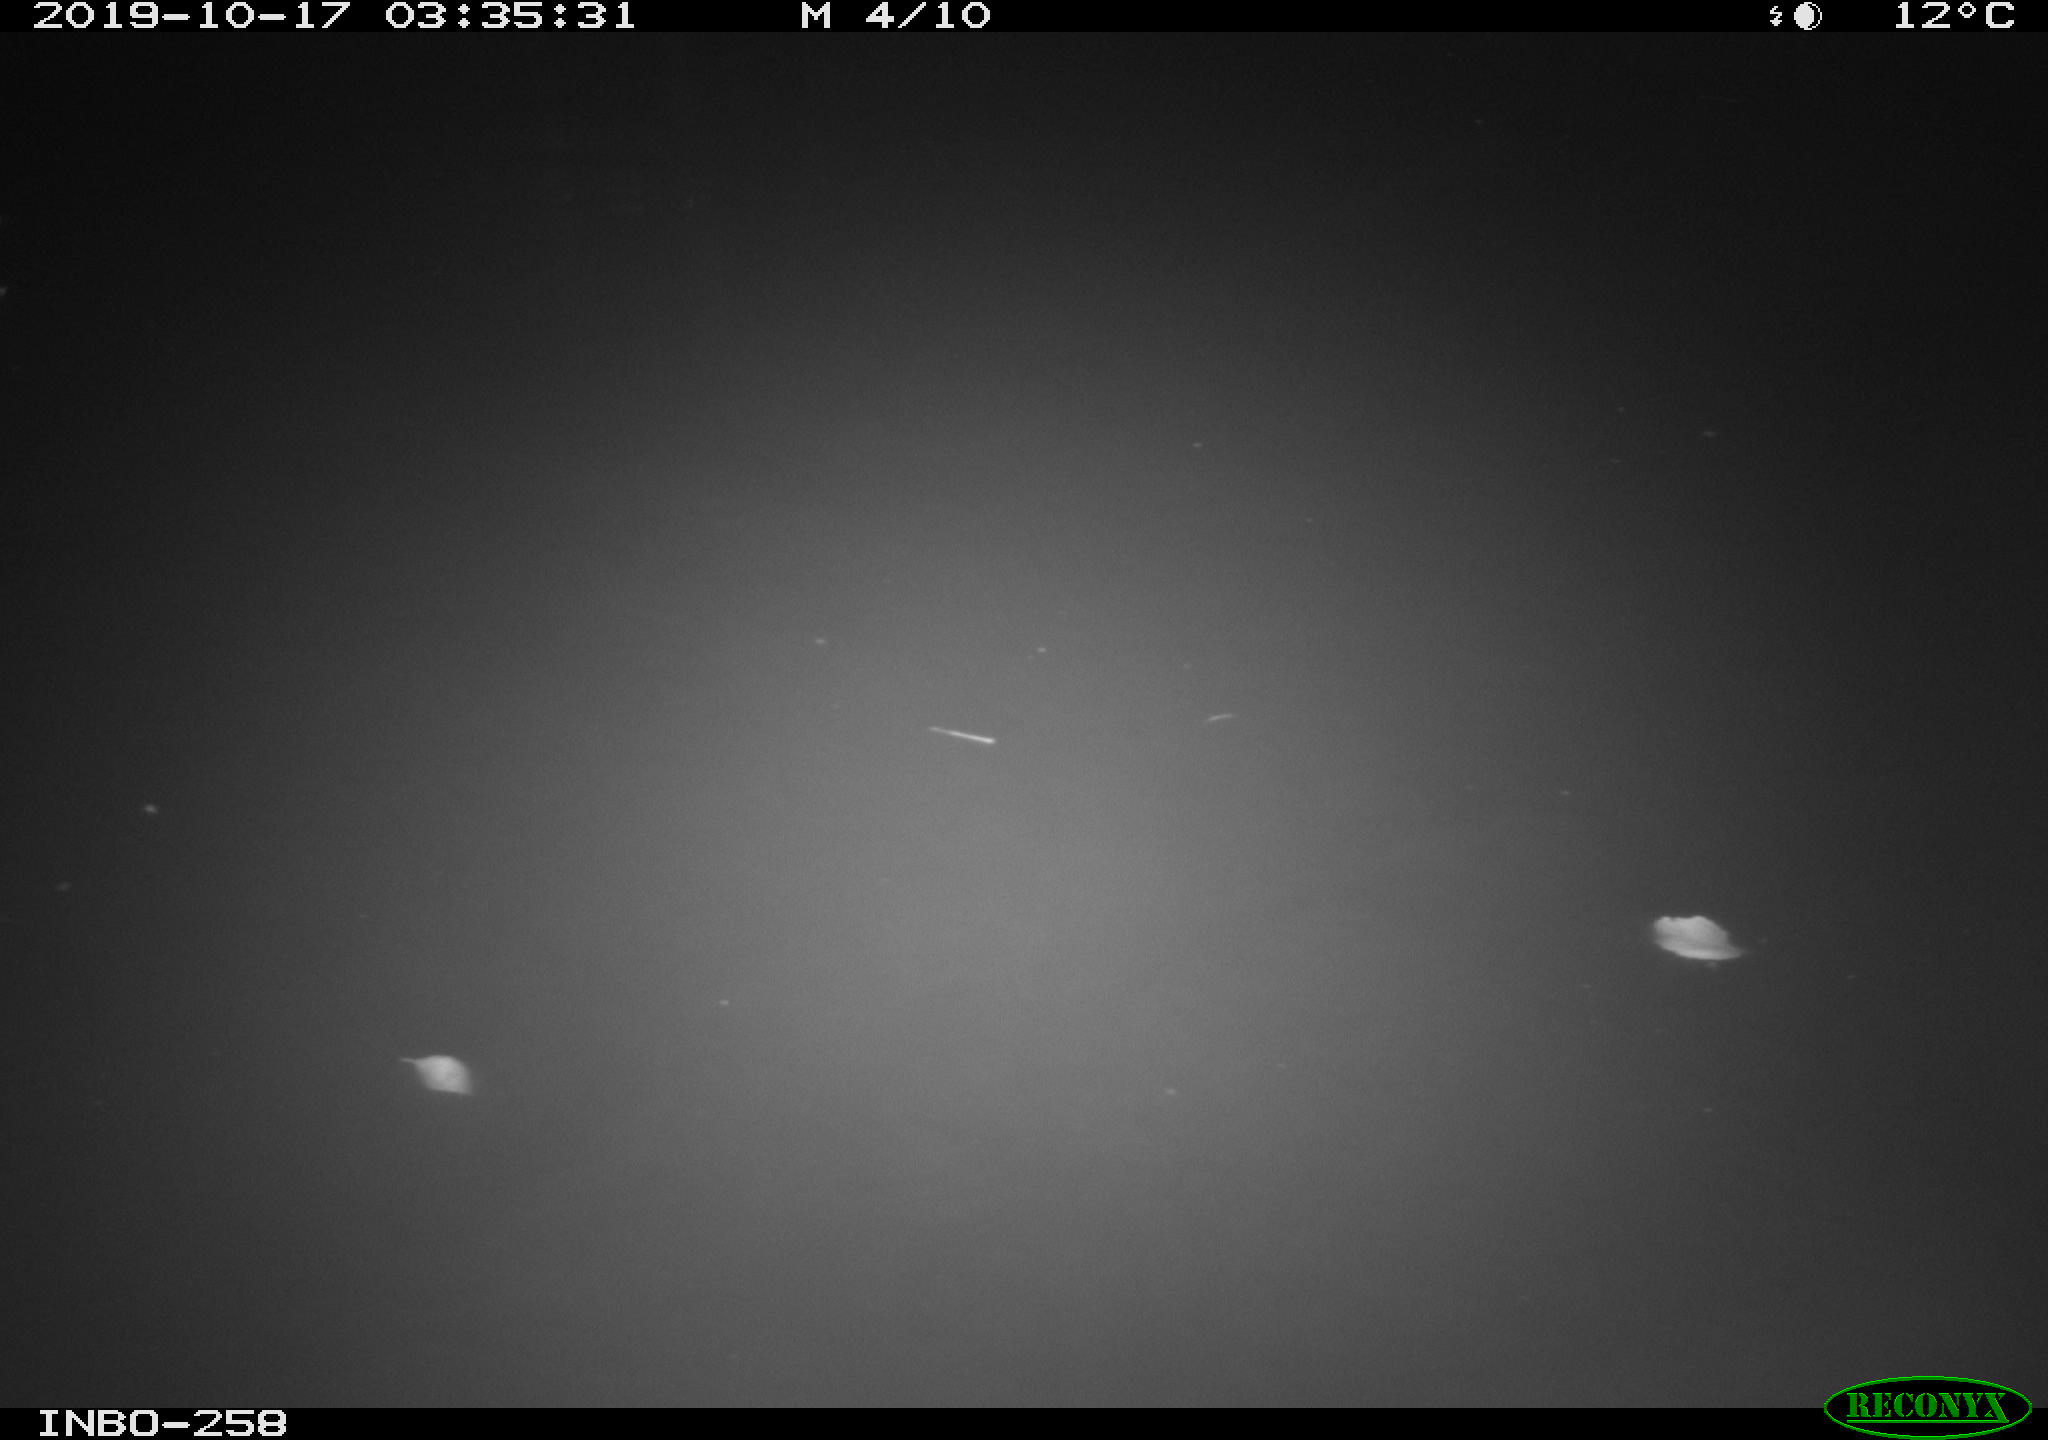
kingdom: Animalia
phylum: Chordata
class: Aves
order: Anseriformes
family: Anatidae
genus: Anas
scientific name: Anas platyrhynchos
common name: Mallard
